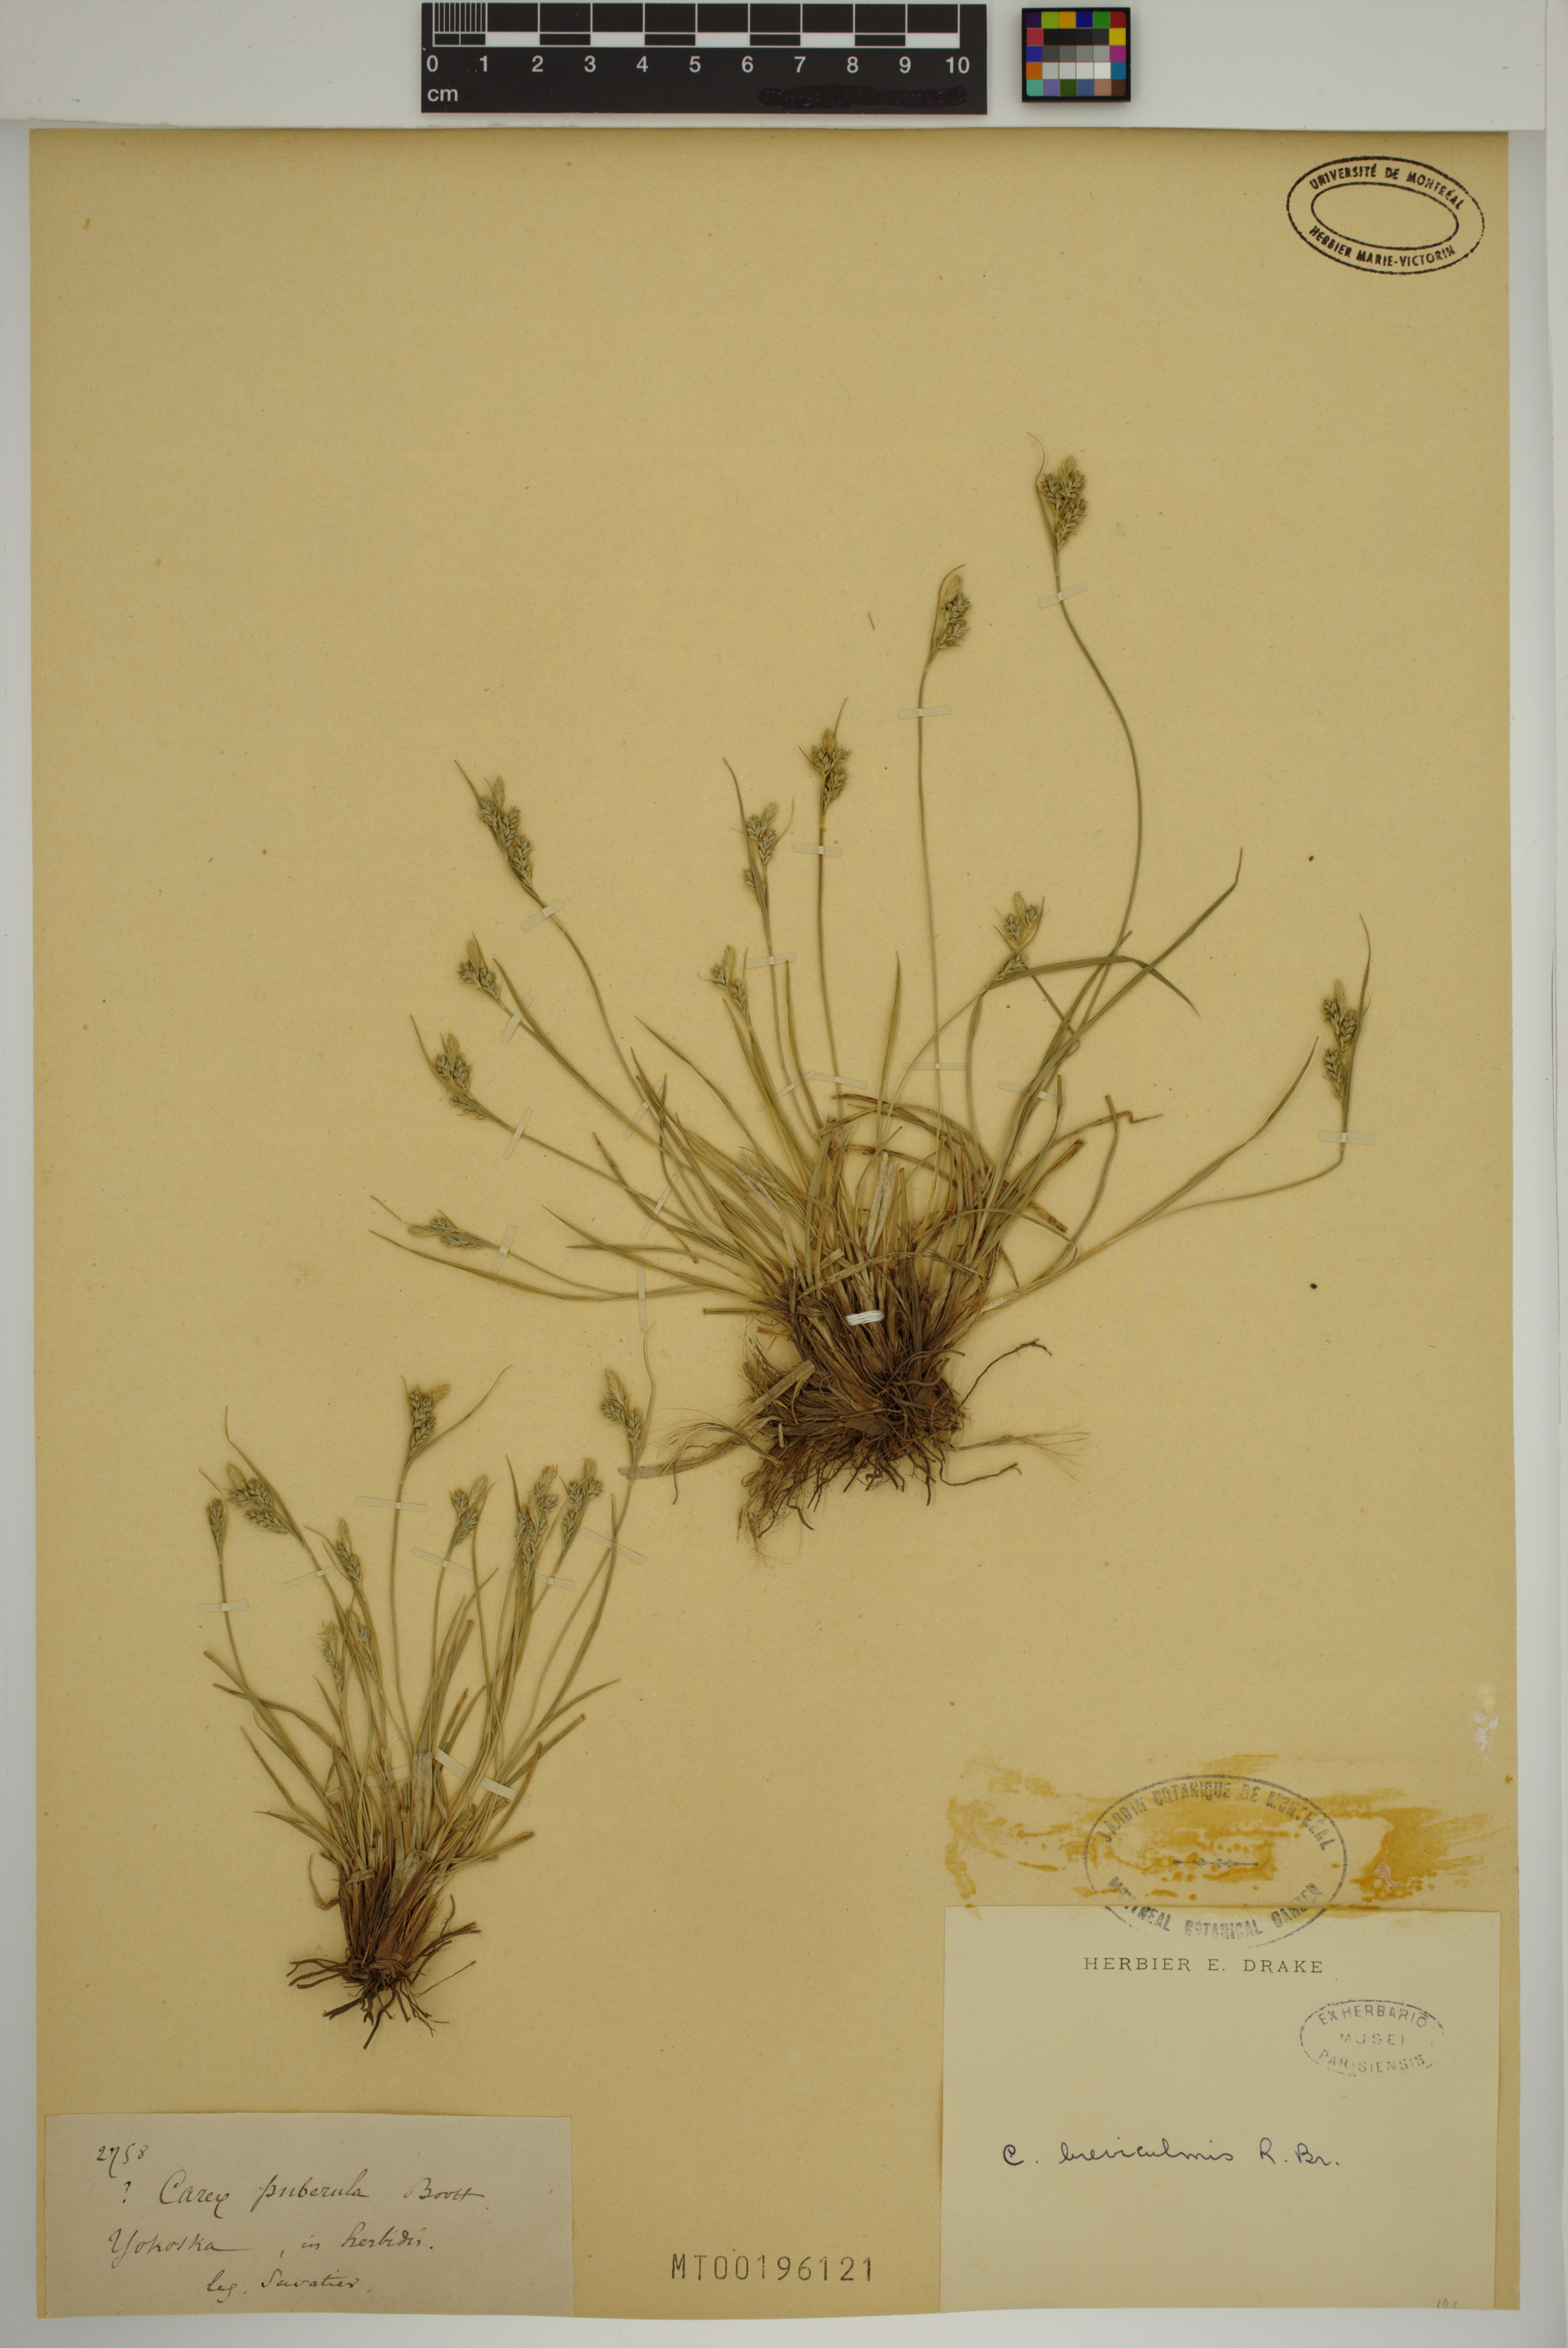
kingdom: Plantae
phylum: Tracheophyta
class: Liliopsida
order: Poales
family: Cyperaceae
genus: Carex
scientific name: Carex breviculmis
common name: Asian shortstem sedge
